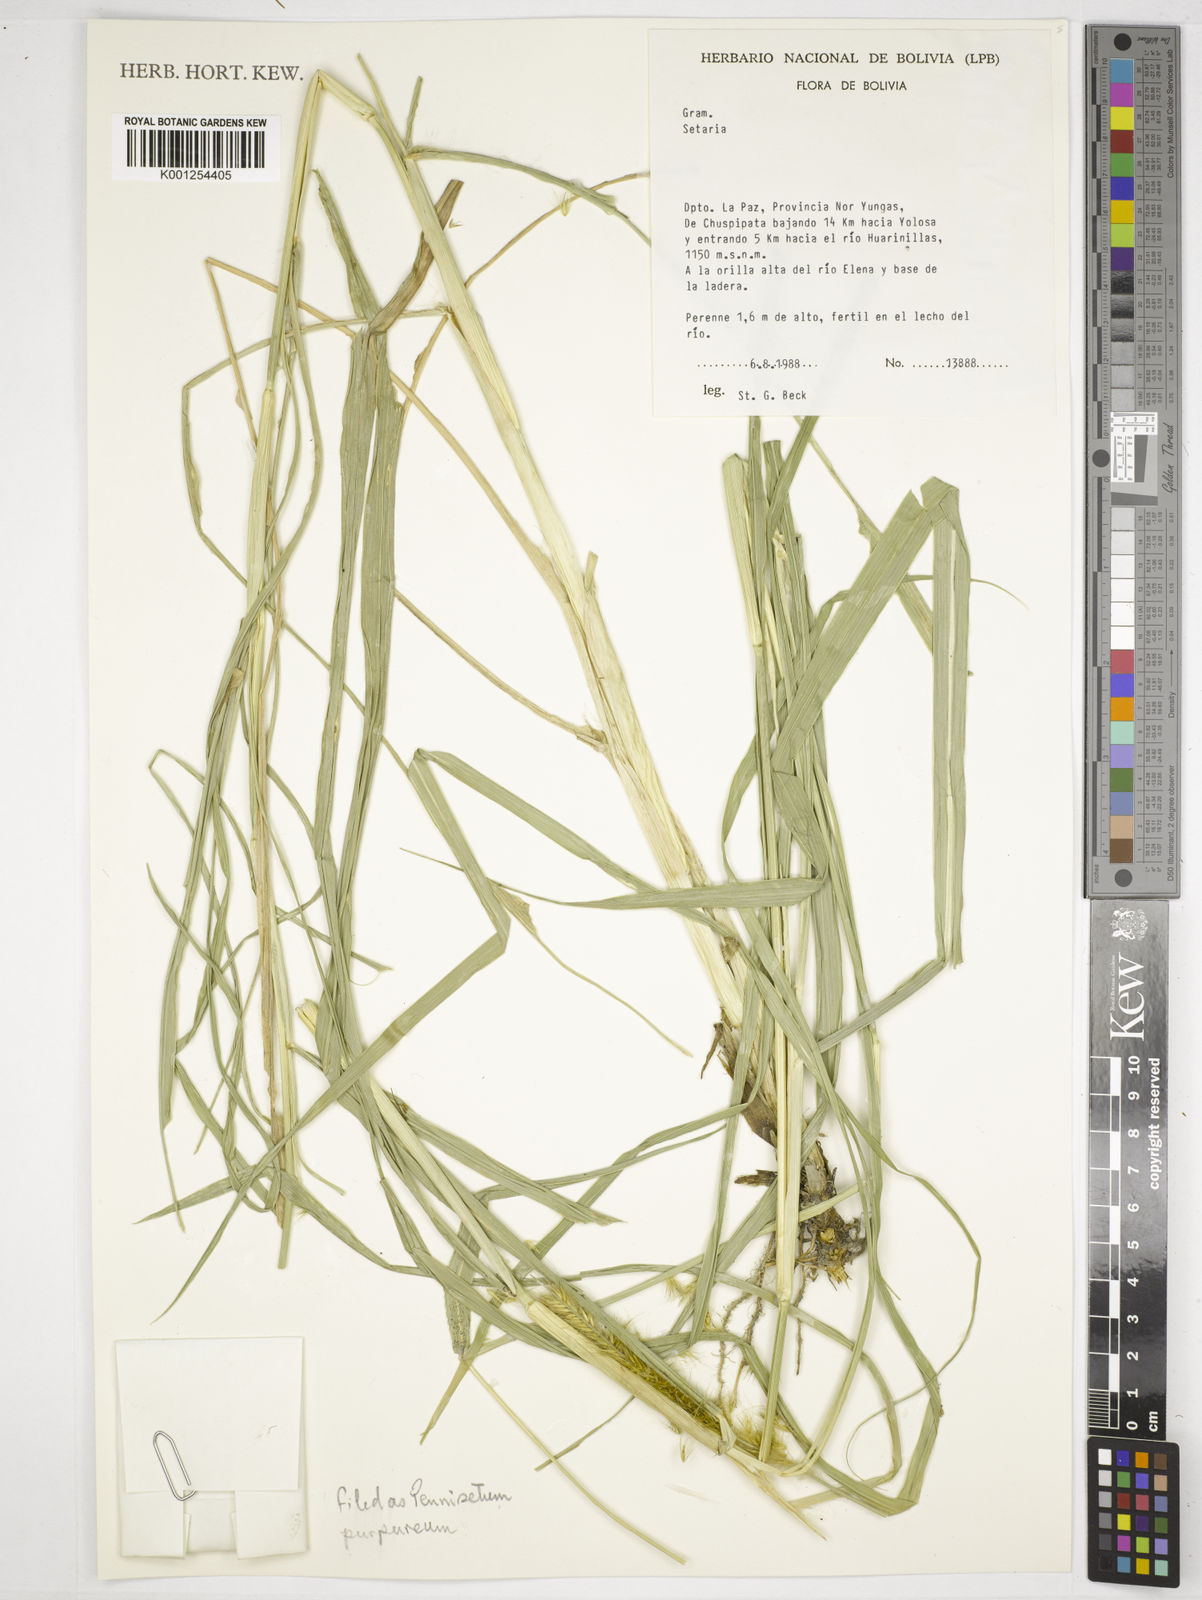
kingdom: Plantae
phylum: Tracheophyta
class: Liliopsida
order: Poales
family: Poaceae
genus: Cenchrus
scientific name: Cenchrus purpureus
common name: Elephant grass
